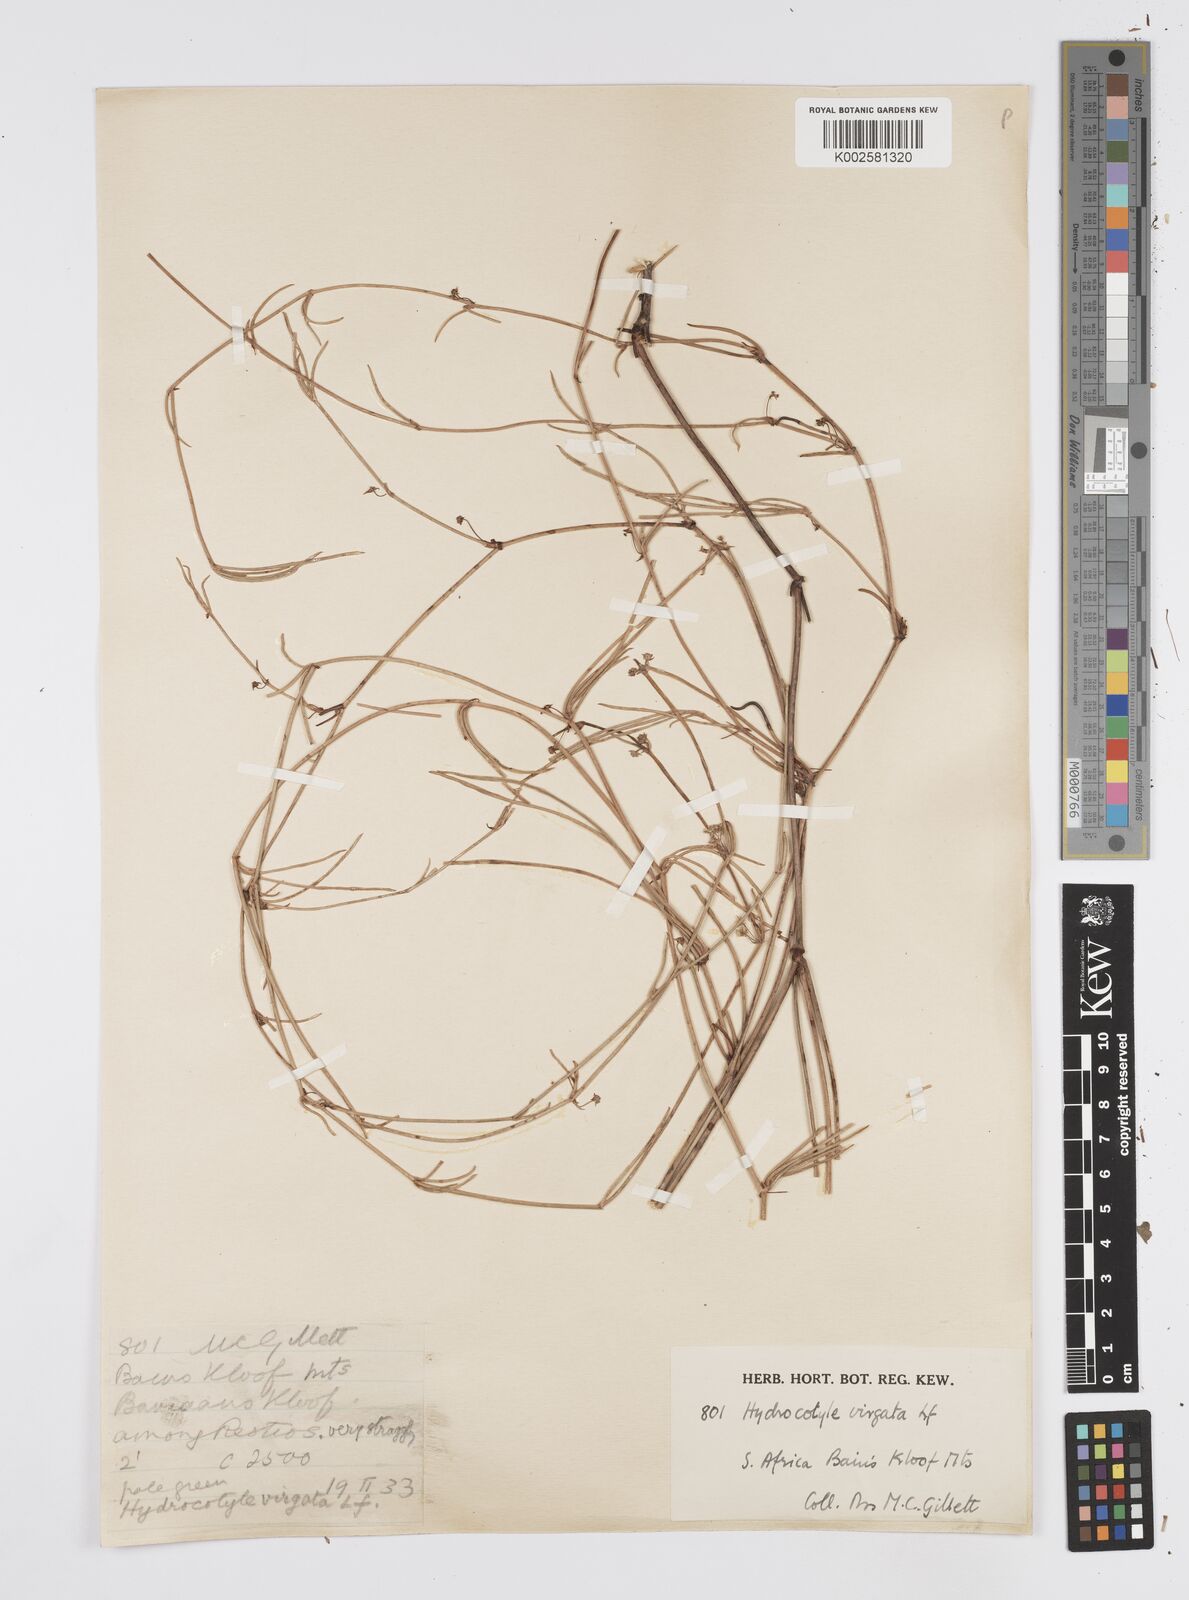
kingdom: Plantae
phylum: Tracheophyta
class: Magnoliopsida
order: Apiales
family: Apiaceae
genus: Centella
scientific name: Centella restioides
